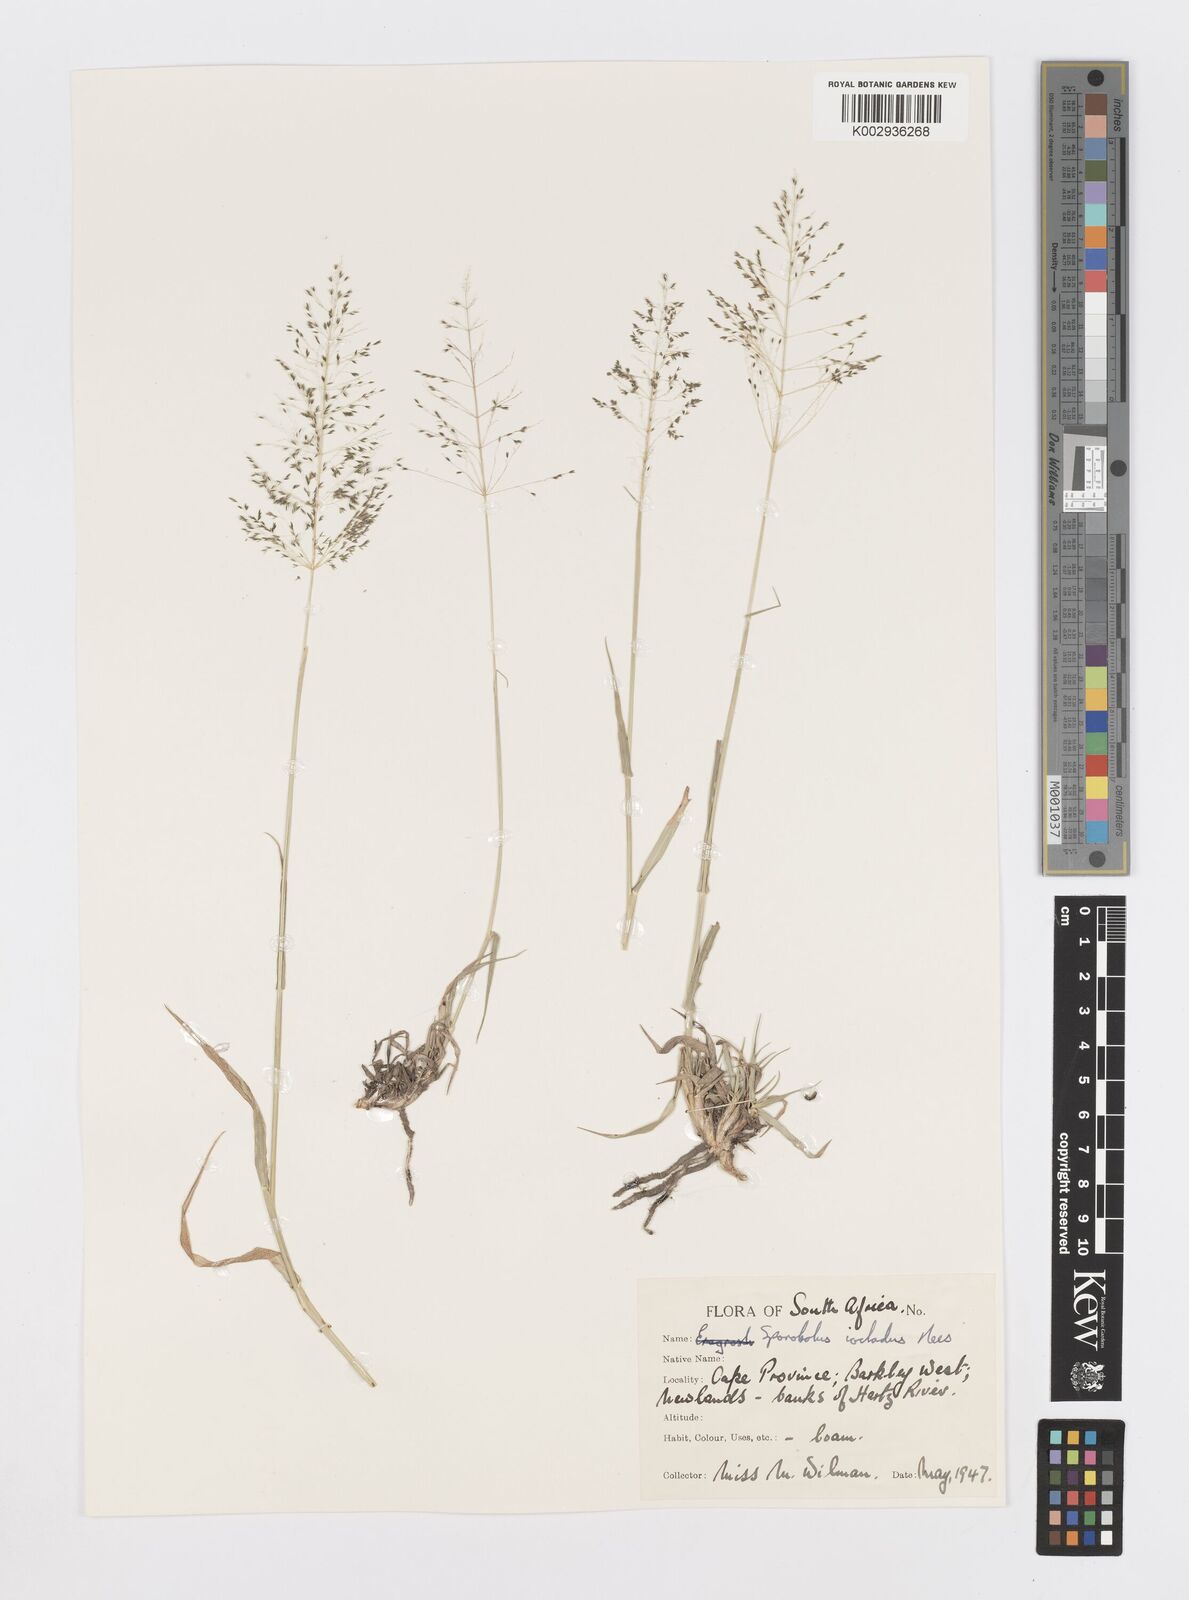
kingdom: Plantae
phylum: Tracheophyta
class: Liliopsida
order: Poales
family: Poaceae
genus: Sporobolus
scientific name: Sporobolus ioclados
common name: Pan dropseed
